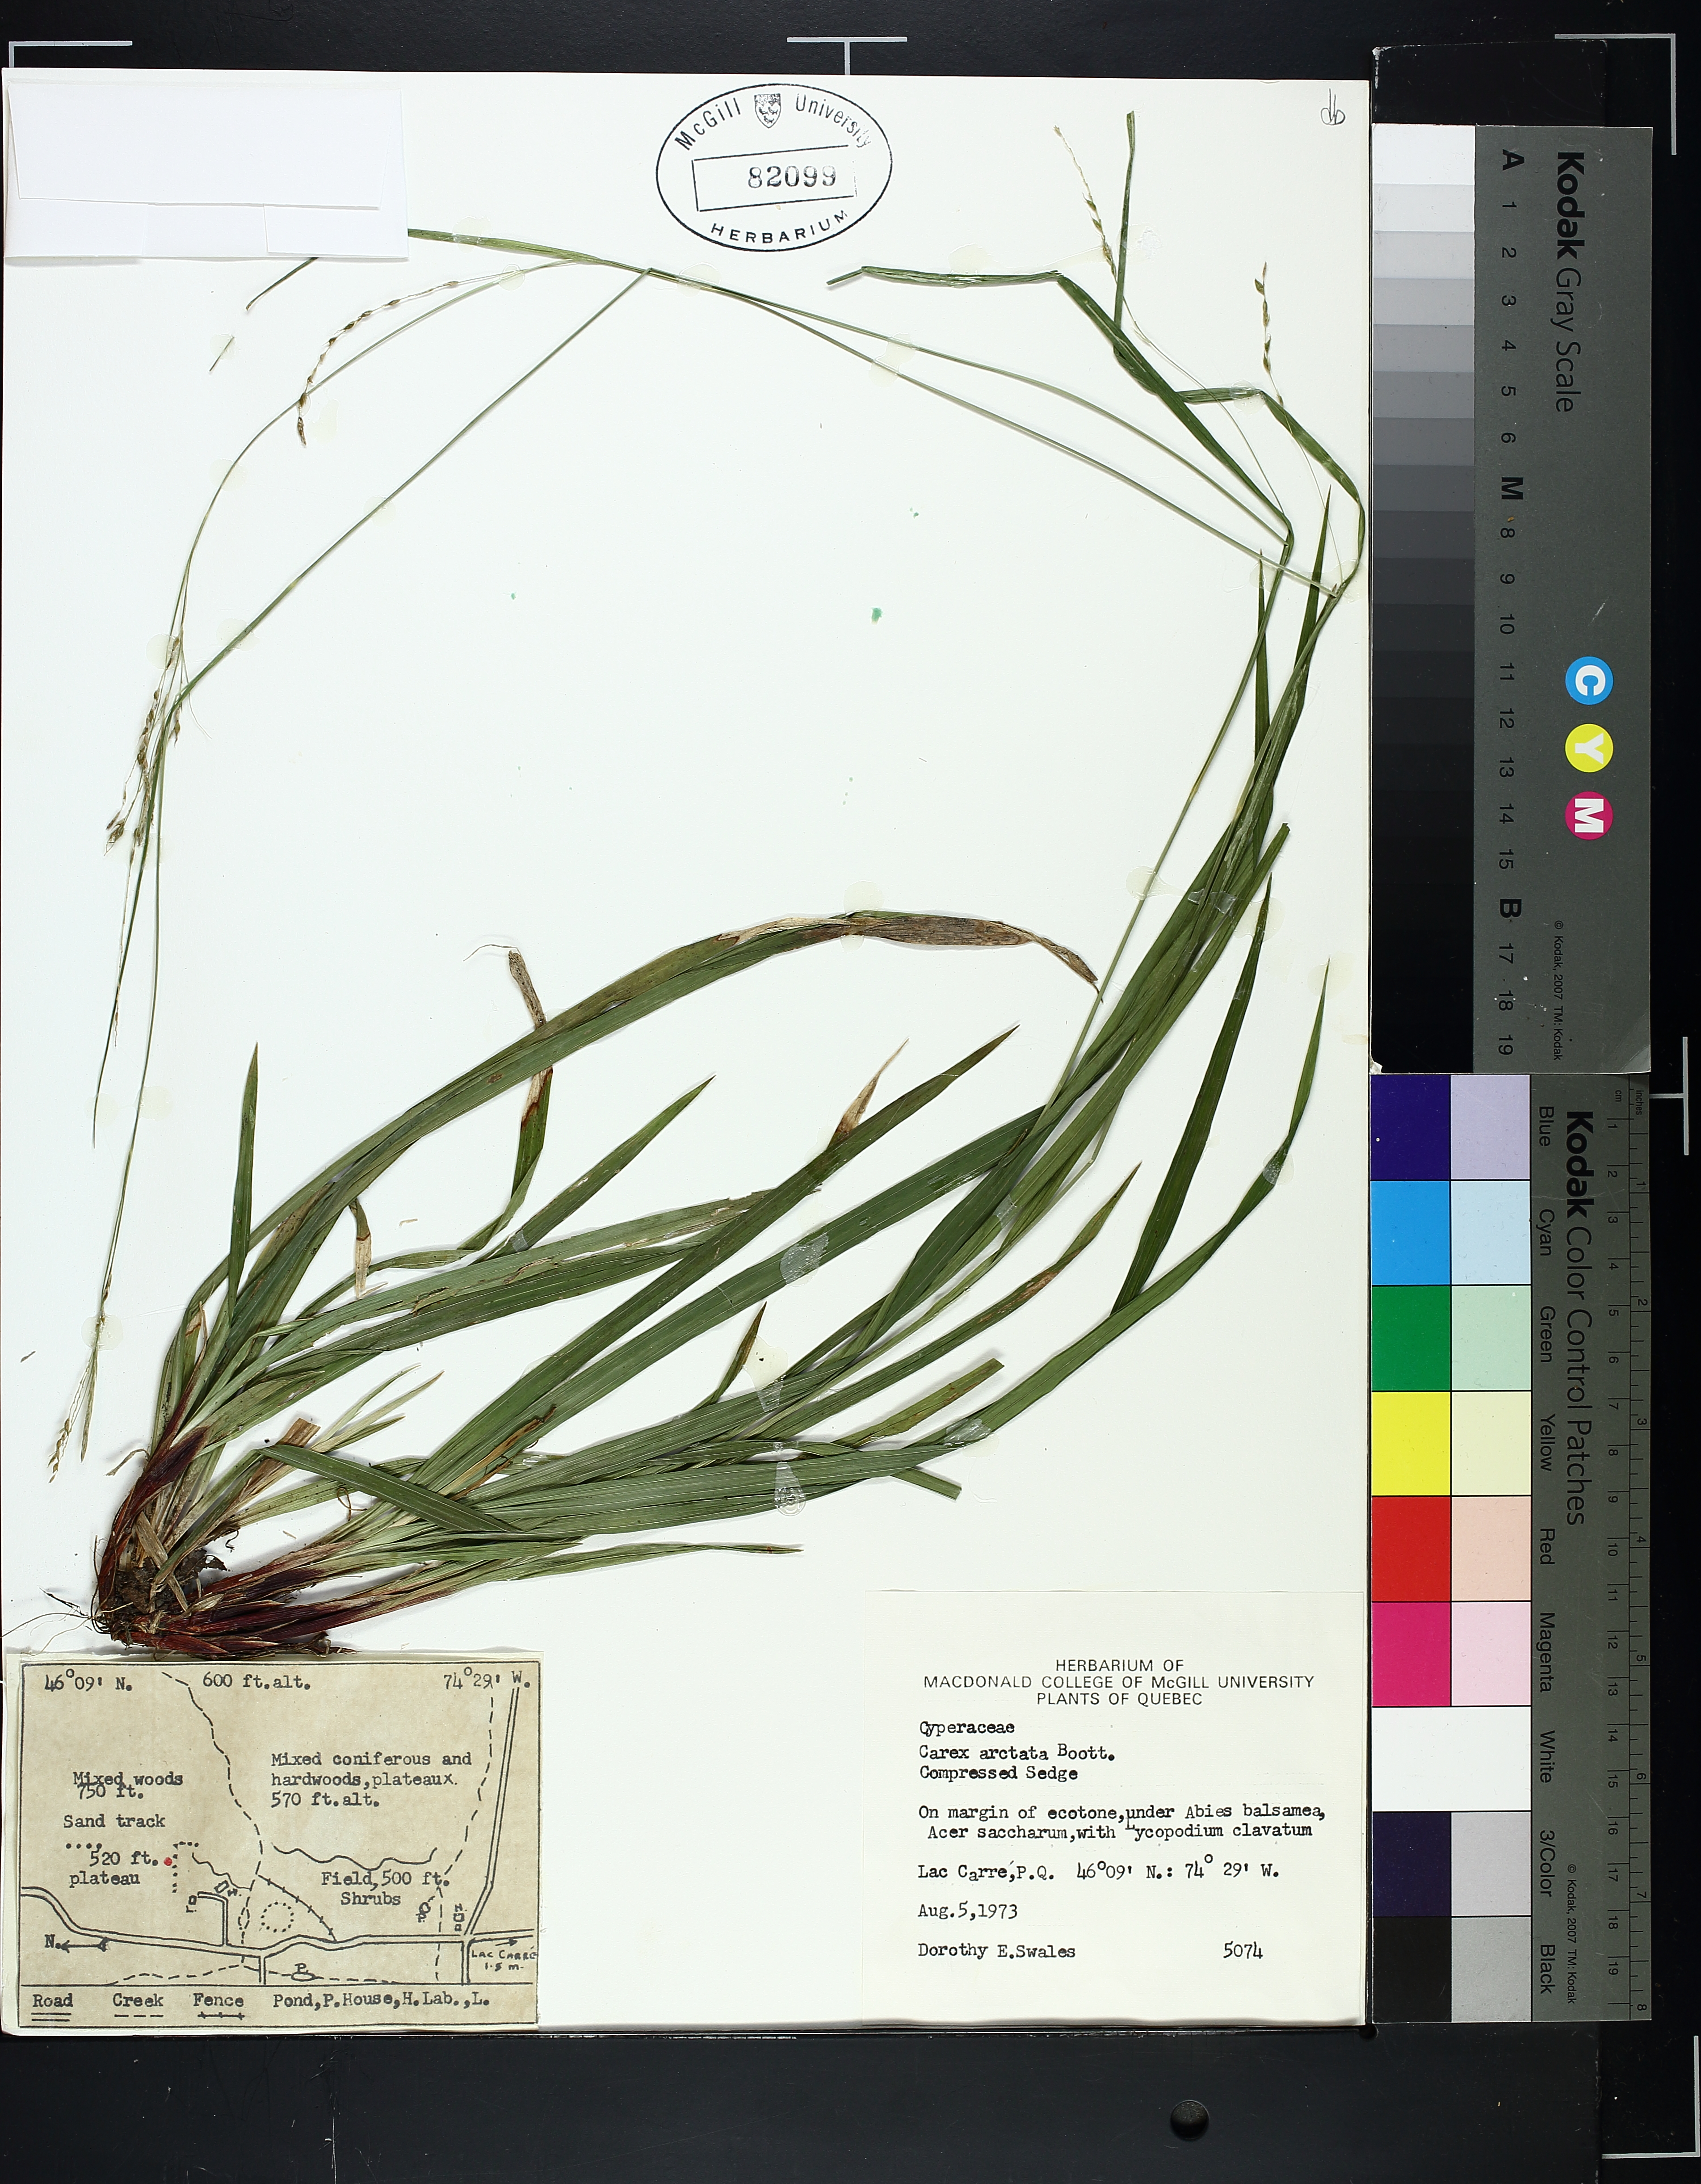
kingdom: Plantae
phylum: Tracheophyta
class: Liliopsida
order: Poales
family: Cyperaceae
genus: Carex
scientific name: Carex arctata
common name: Black sedge
